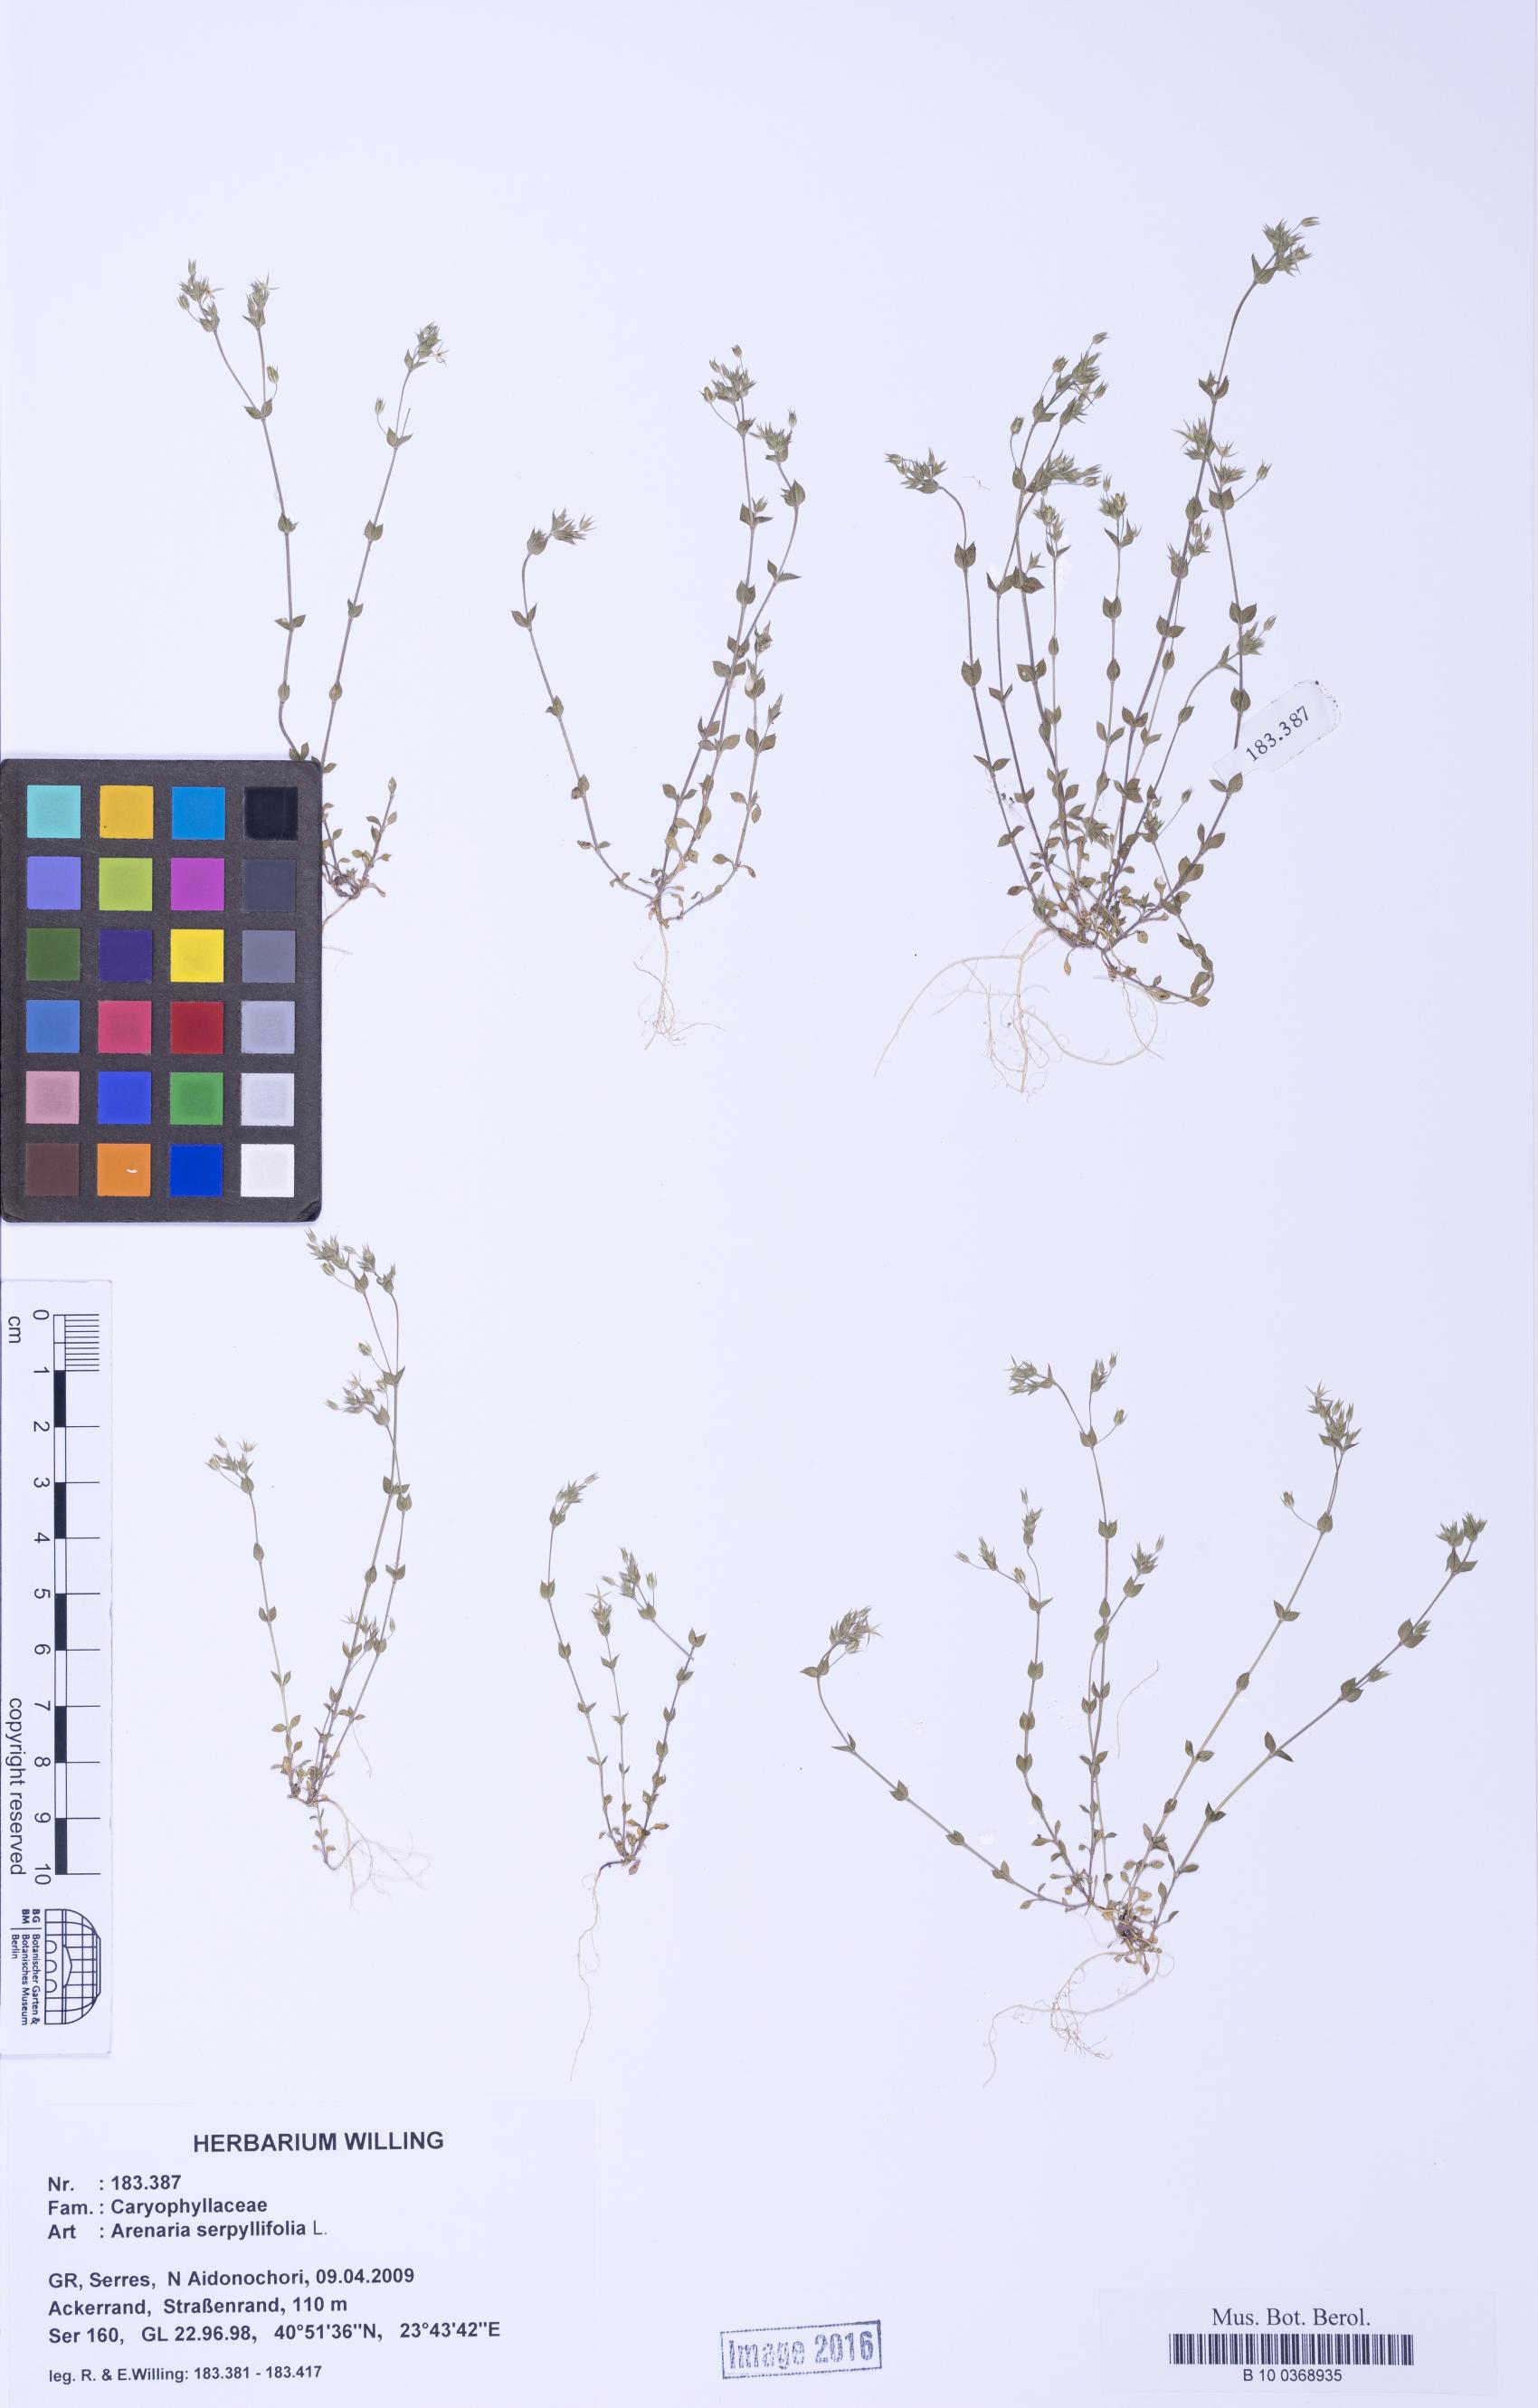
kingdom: Plantae
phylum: Tracheophyta
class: Magnoliopsida
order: Caryophyllales
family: Caryophyllaceae
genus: Arenaria
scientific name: Arenaria serpyllifolia
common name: Thyme-leaved sandwort
